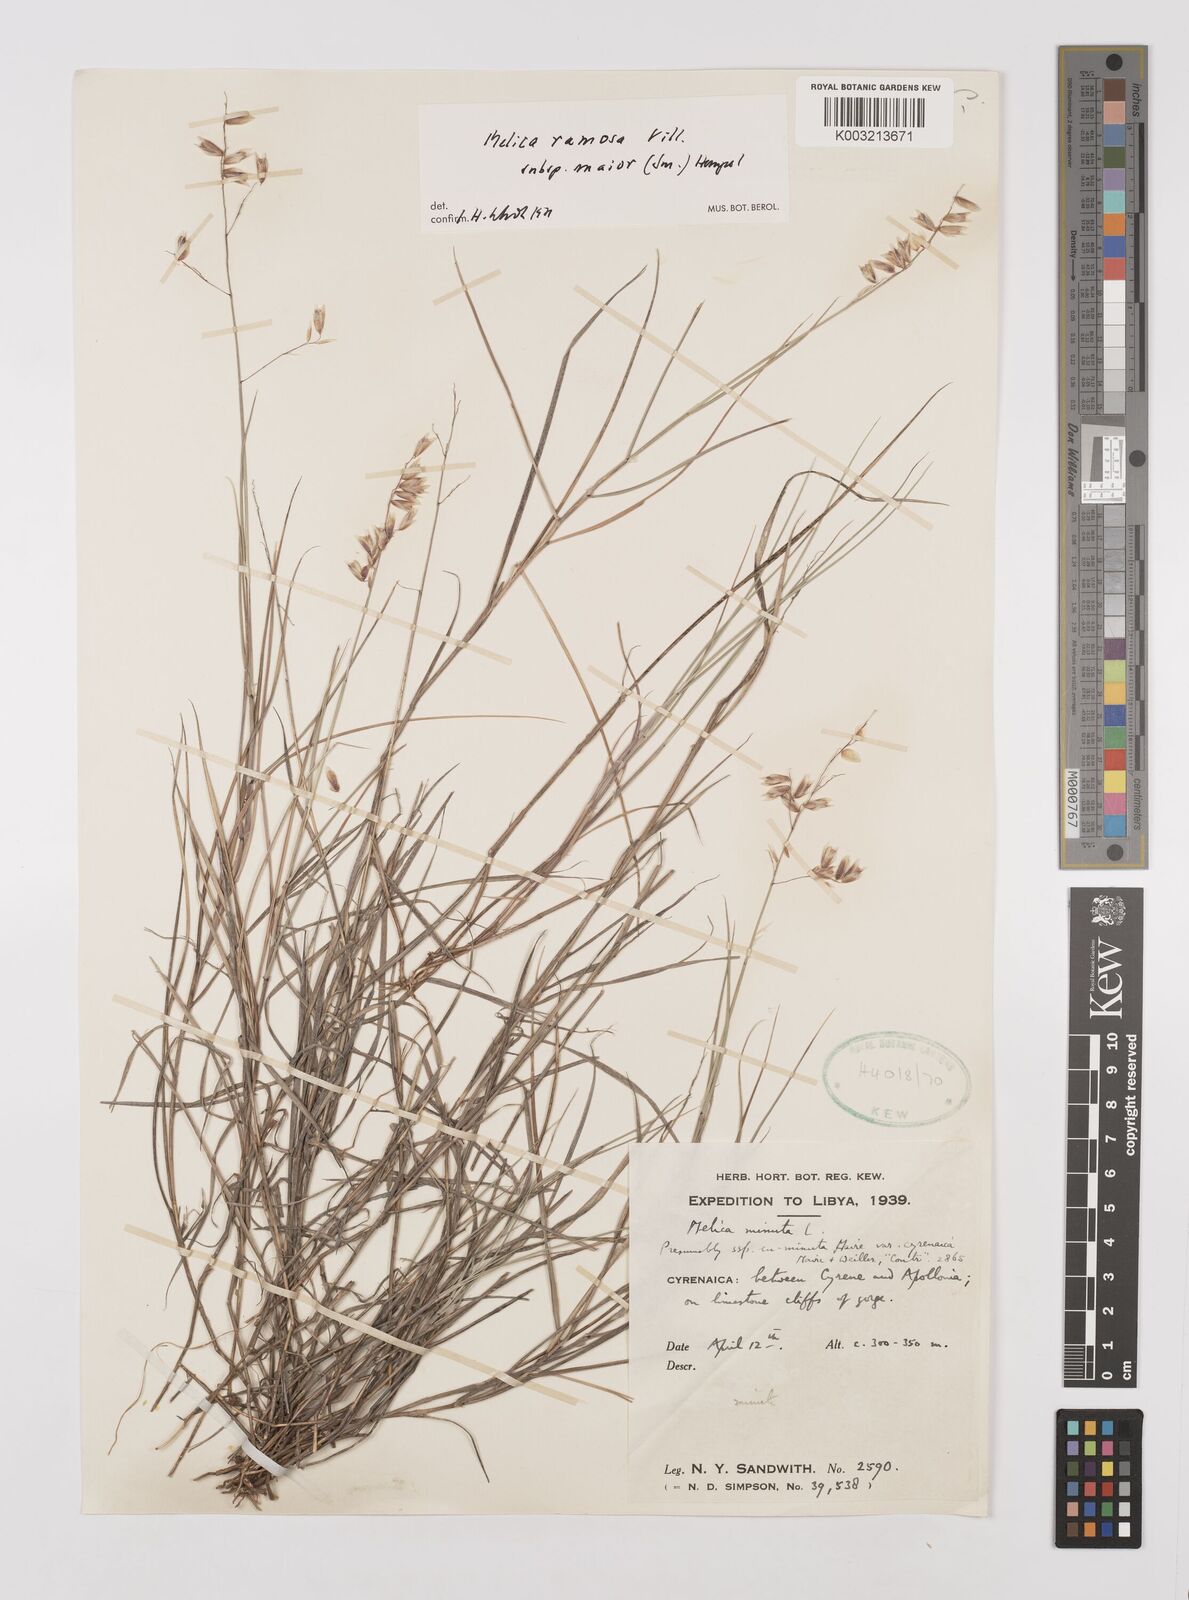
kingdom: Plantae
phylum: Tracheophyta
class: Liliopsida
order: Poales
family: Poaceae
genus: Melica
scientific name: Melica minuta
